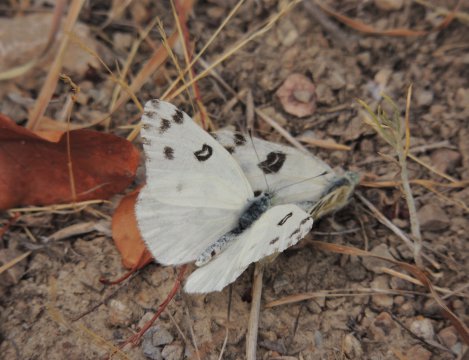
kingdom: Animalia
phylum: Arthropoda
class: Insecta
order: Lepidoptera
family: Pieridae
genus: Pontia
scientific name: Pontia beckerii
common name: Becker's White
